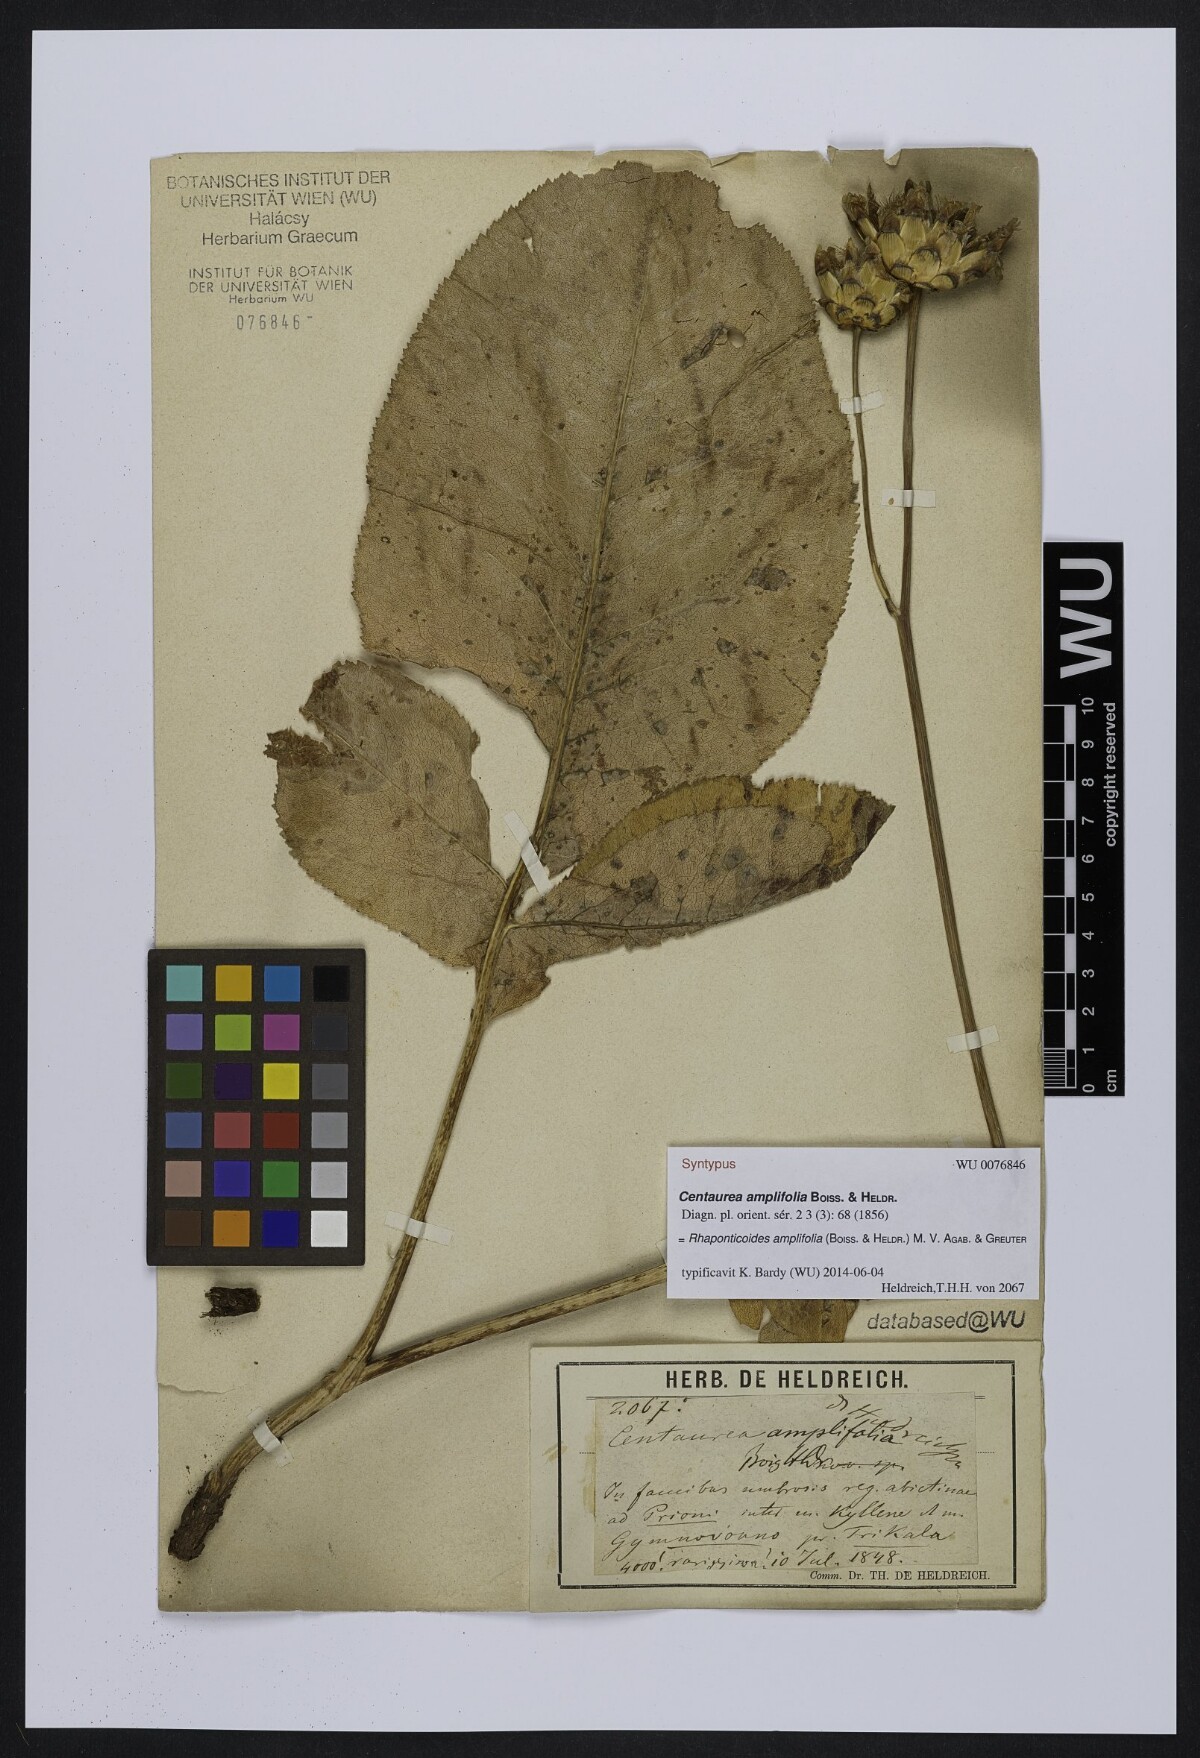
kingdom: Plantae
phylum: Tracheophyta
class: Magnoliopsida
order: Asterales
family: Asteraceae
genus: Rhaponticoides
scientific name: Rhaponticoides amplifolia
